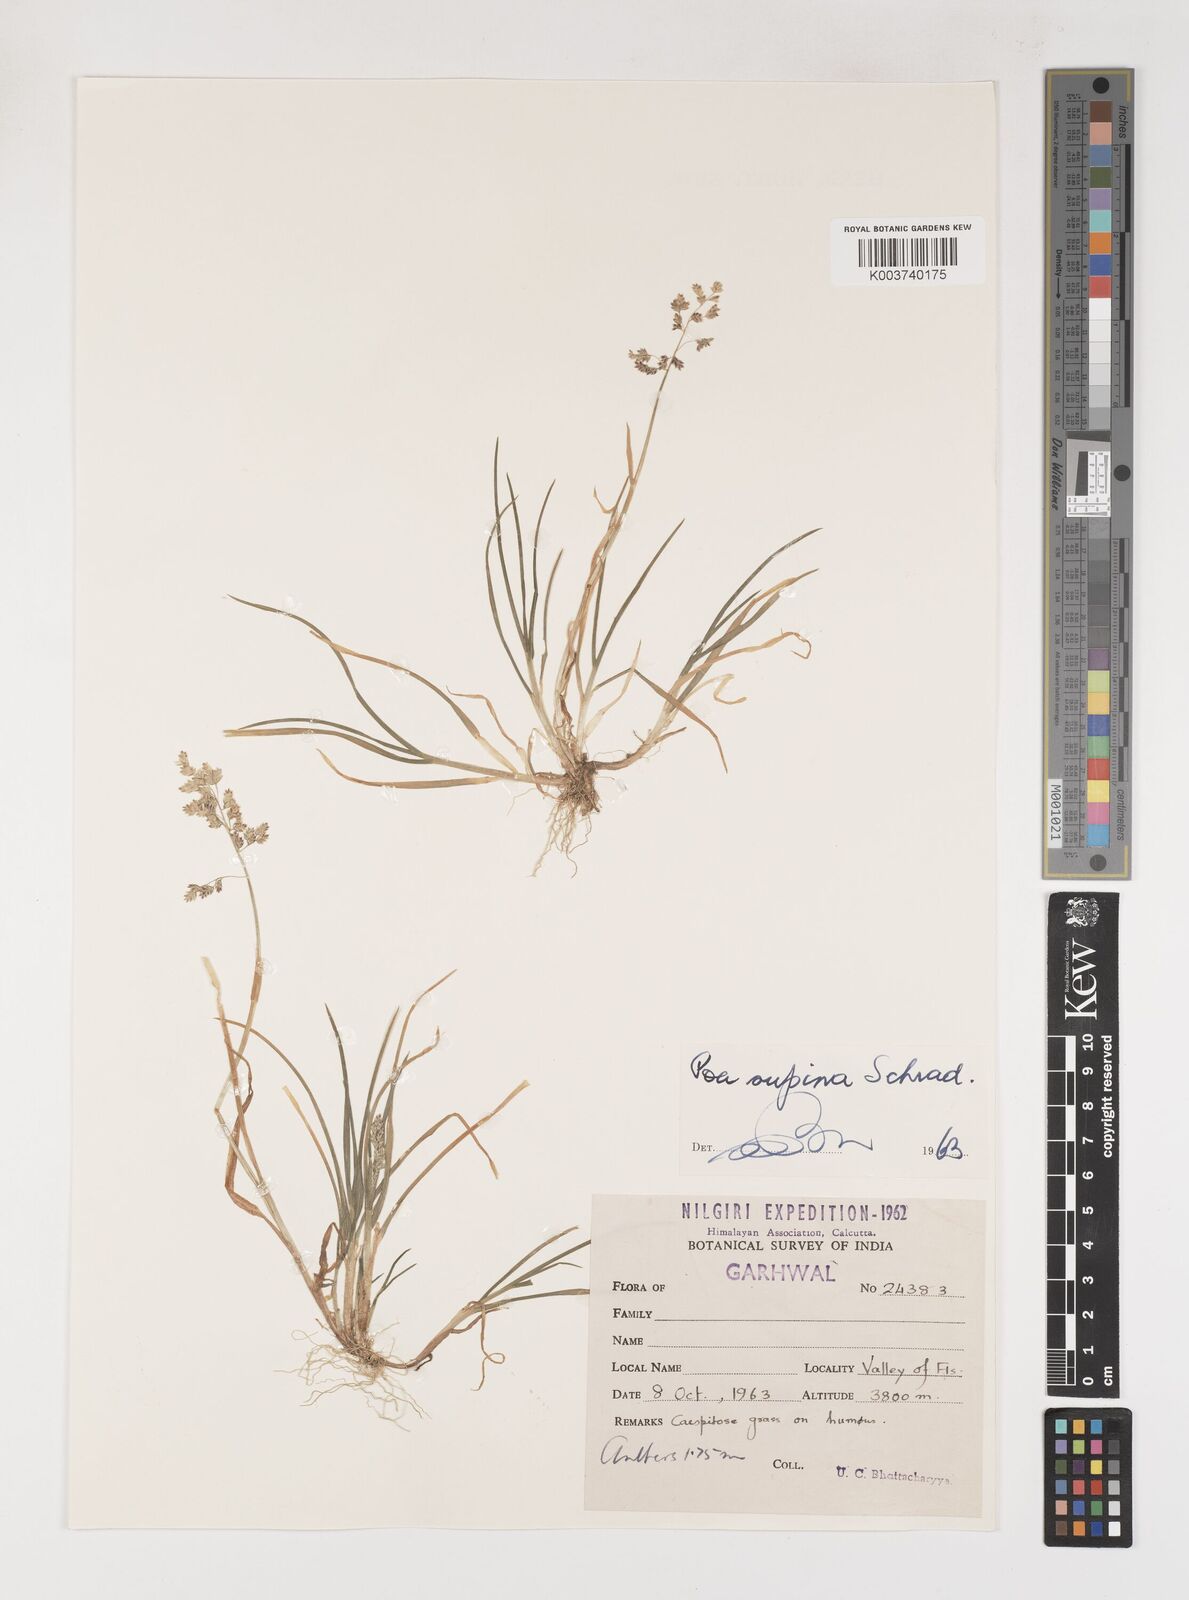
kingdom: Plantae
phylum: Tracheophyta
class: Liliopsida
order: Poales
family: Poaceae
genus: Poa
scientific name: Poa supina
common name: Supina bluegrass
